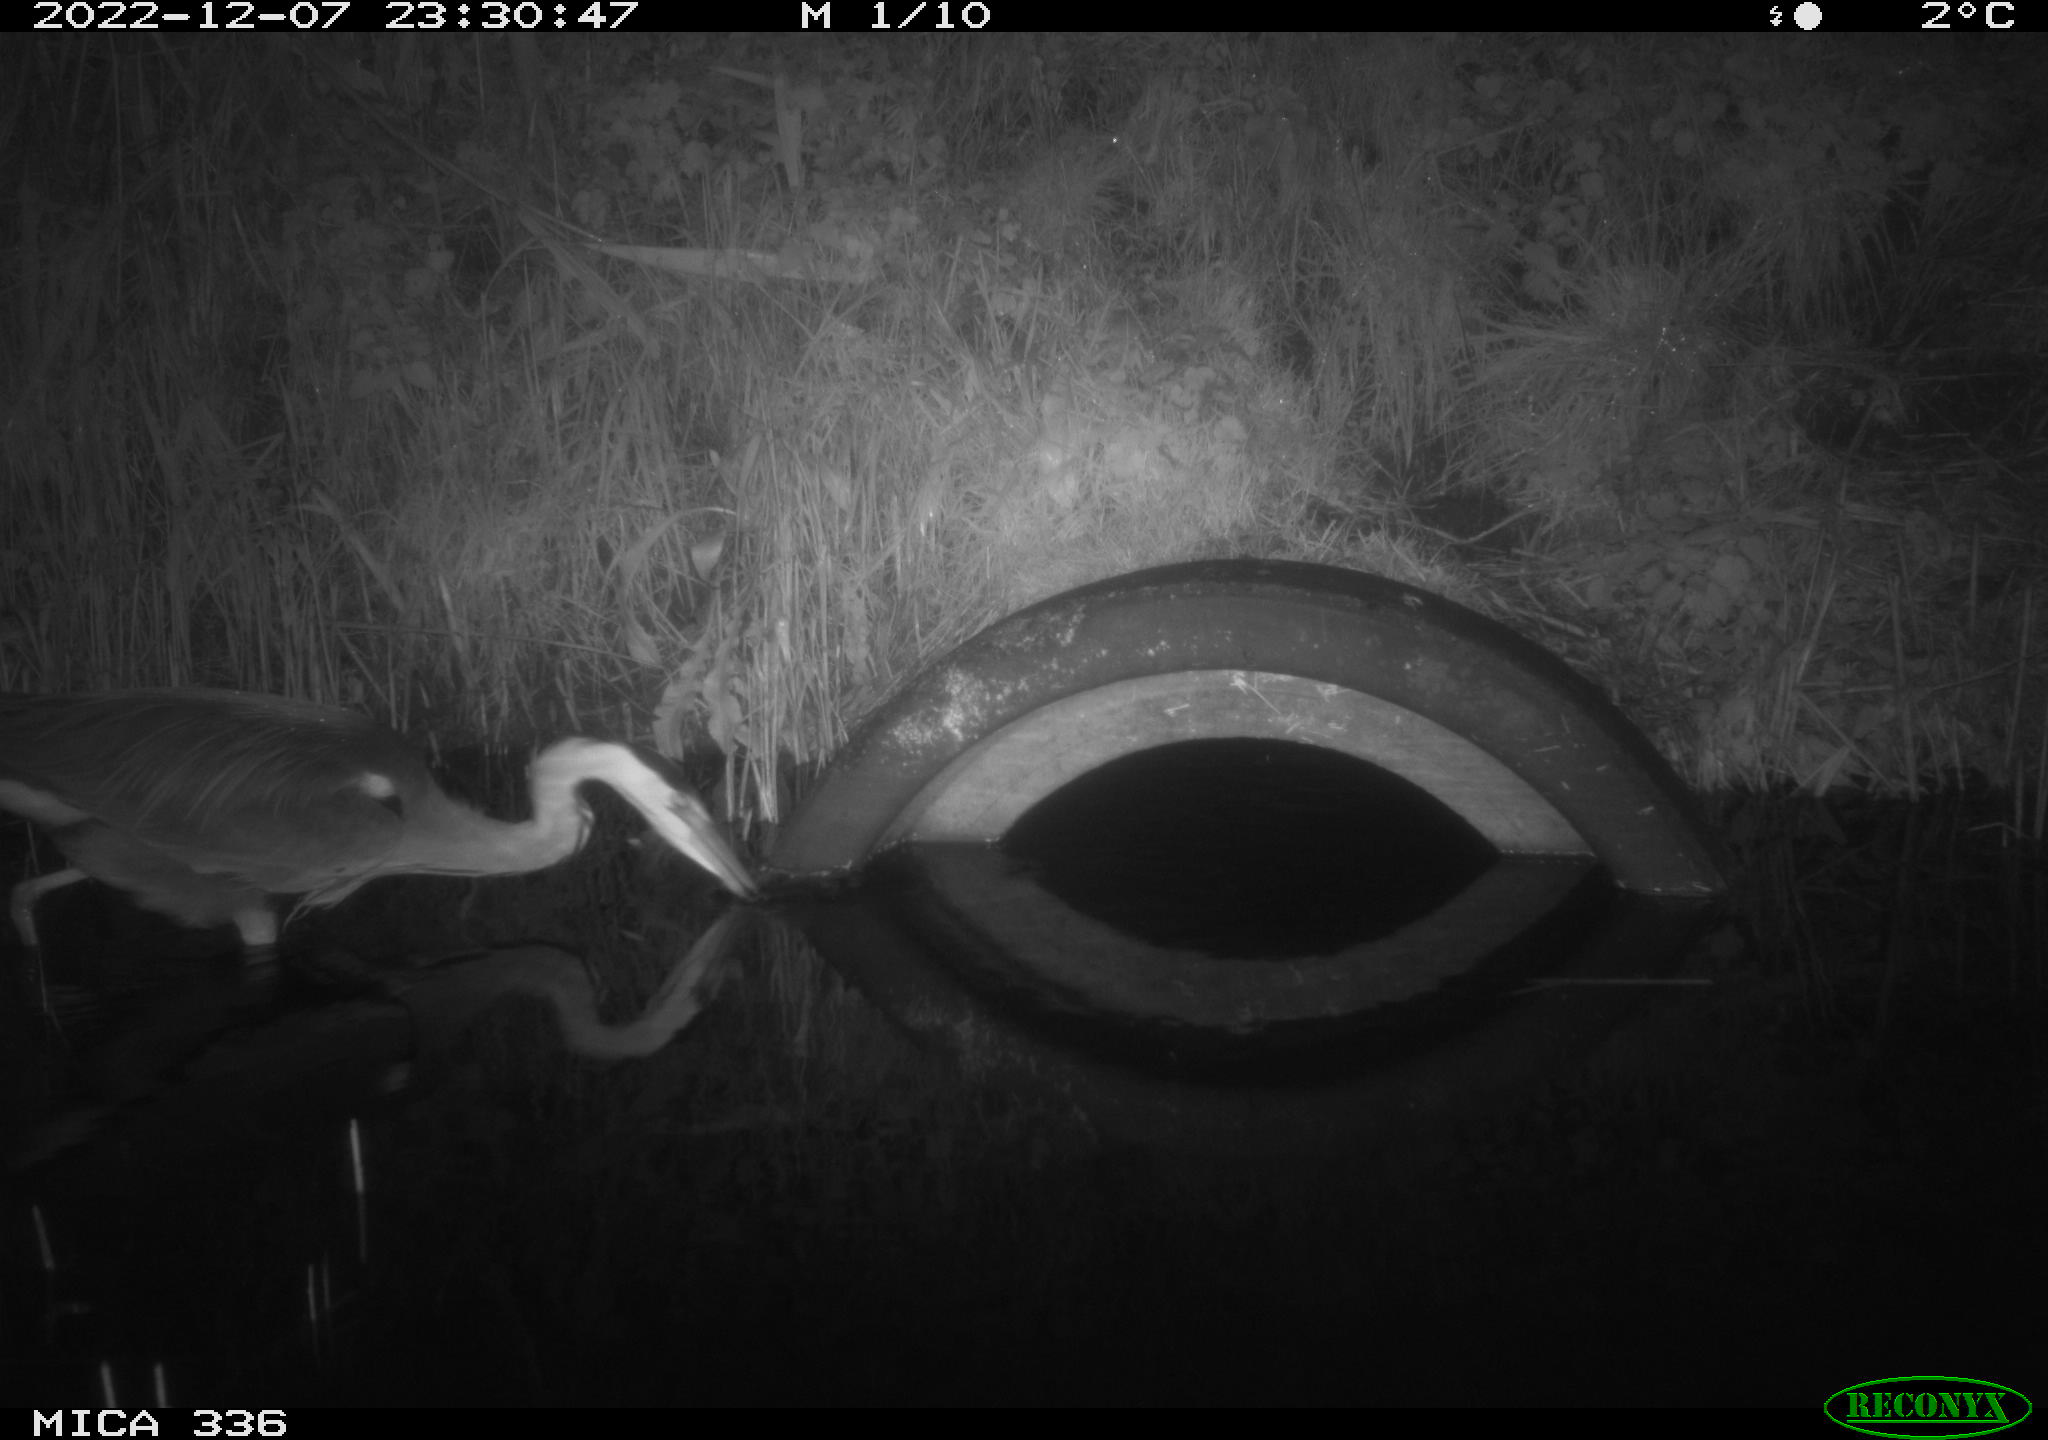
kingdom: Animalia
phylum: Chordata
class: Aves
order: Pelecaniformes
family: Ardeidae
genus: Ardea
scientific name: Ardea cinerea
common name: Grey heron
